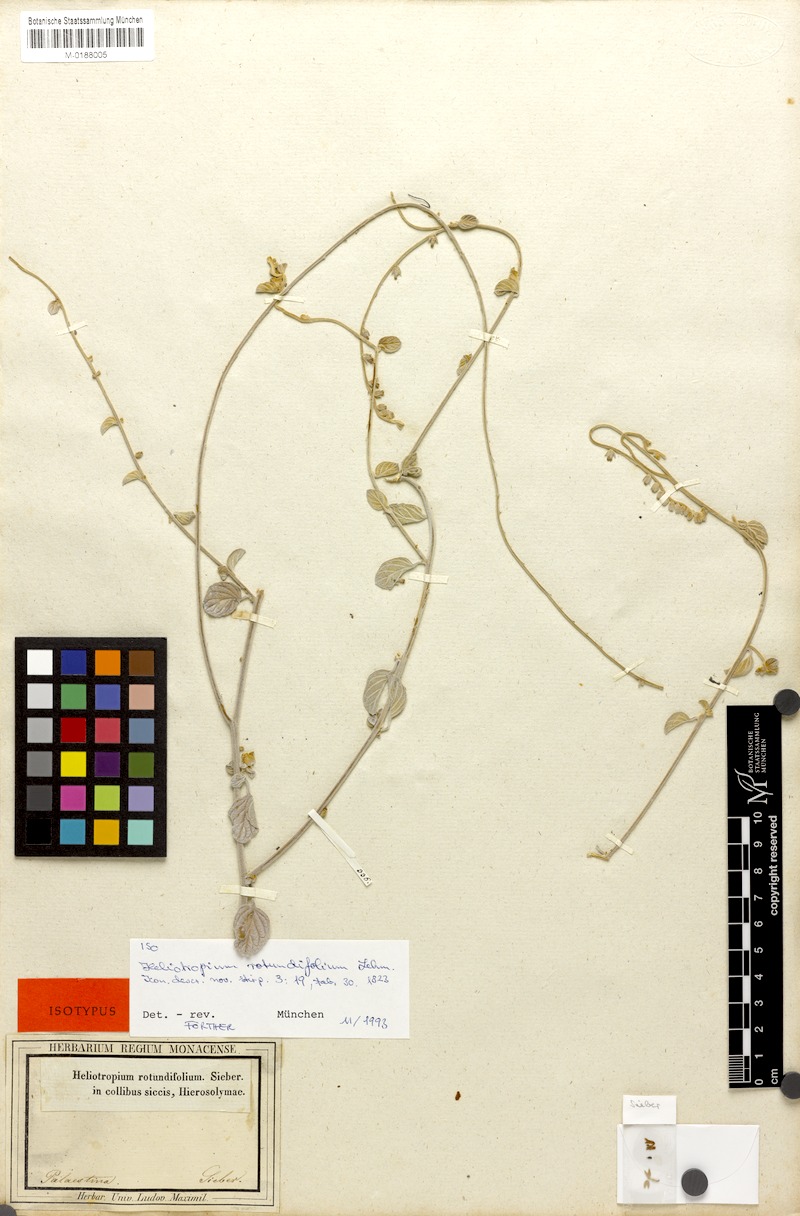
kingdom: Plantae
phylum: Tracheophyta
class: Magnoliopsida
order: Boraginales
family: Heliotropiaceae
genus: Heliotropium
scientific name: Heliotropium rotundifolium
